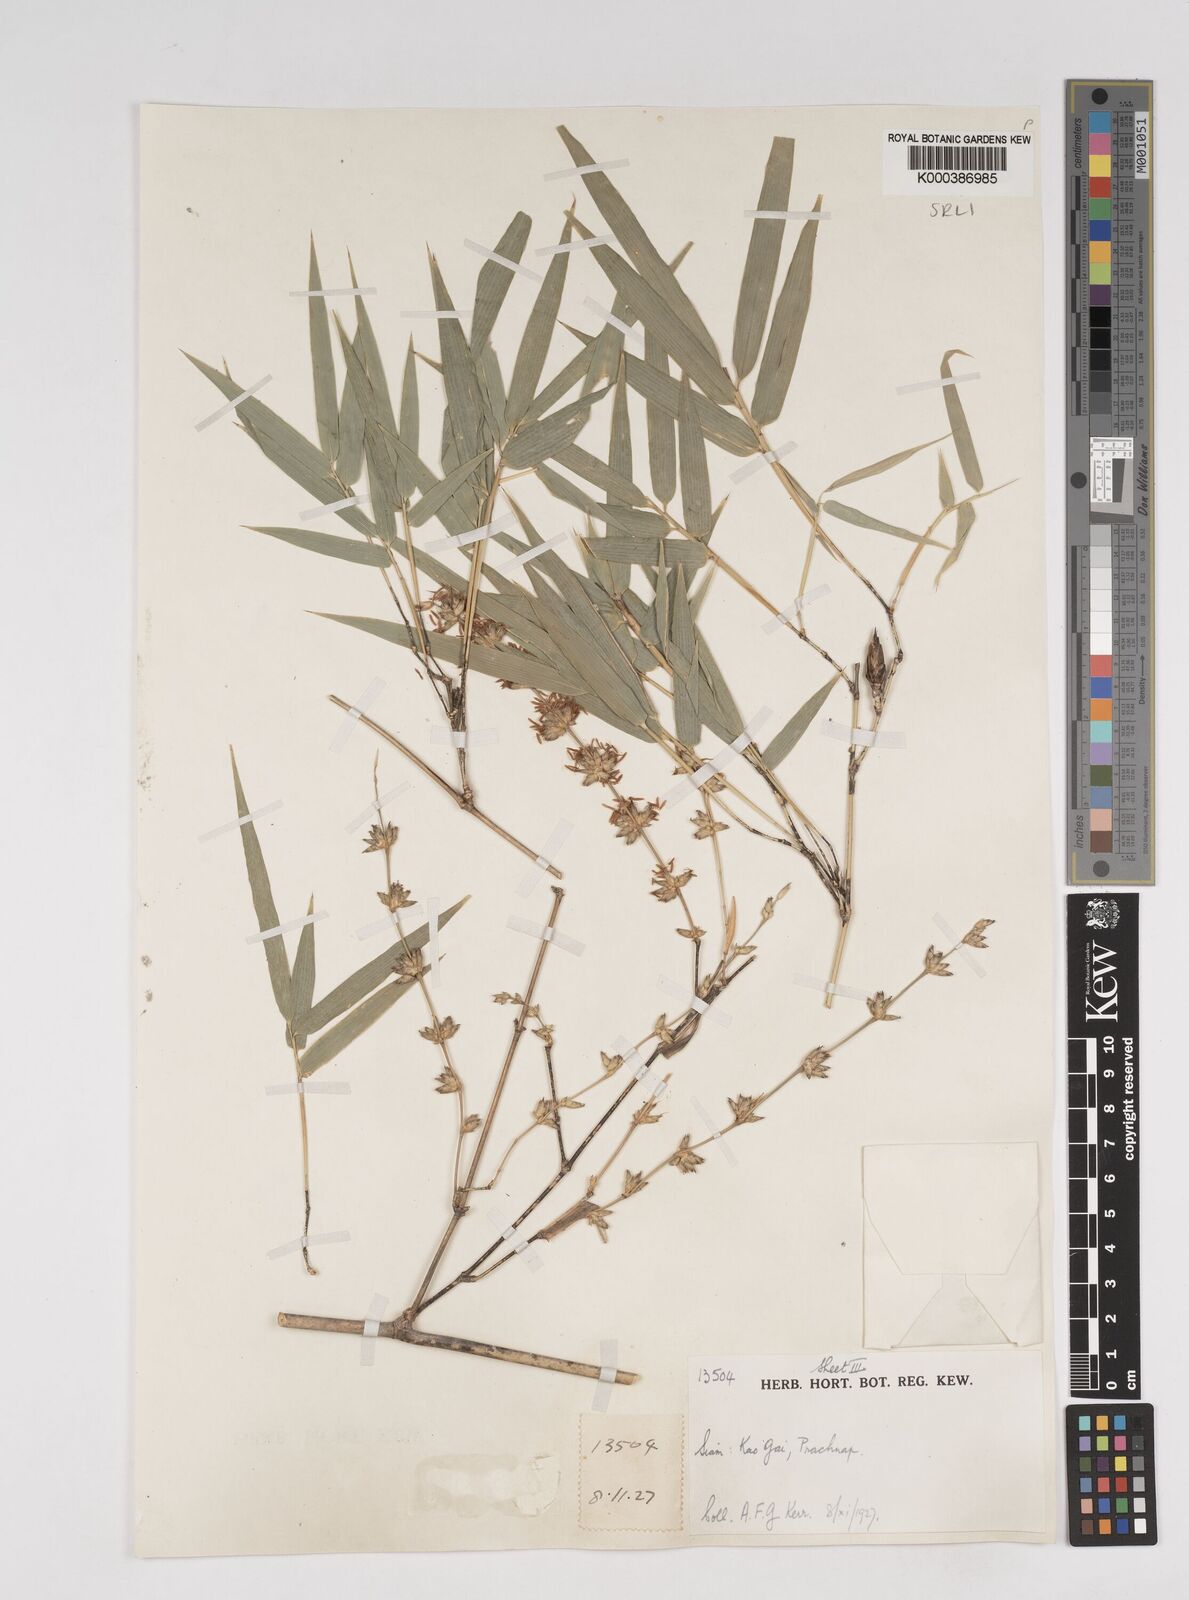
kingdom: Plantae
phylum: Tracheophyta
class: Liliopsida
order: Poales
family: Poaceae
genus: Dendrocalamus
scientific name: Dendrocalamus membranaceus
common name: White bamboo
